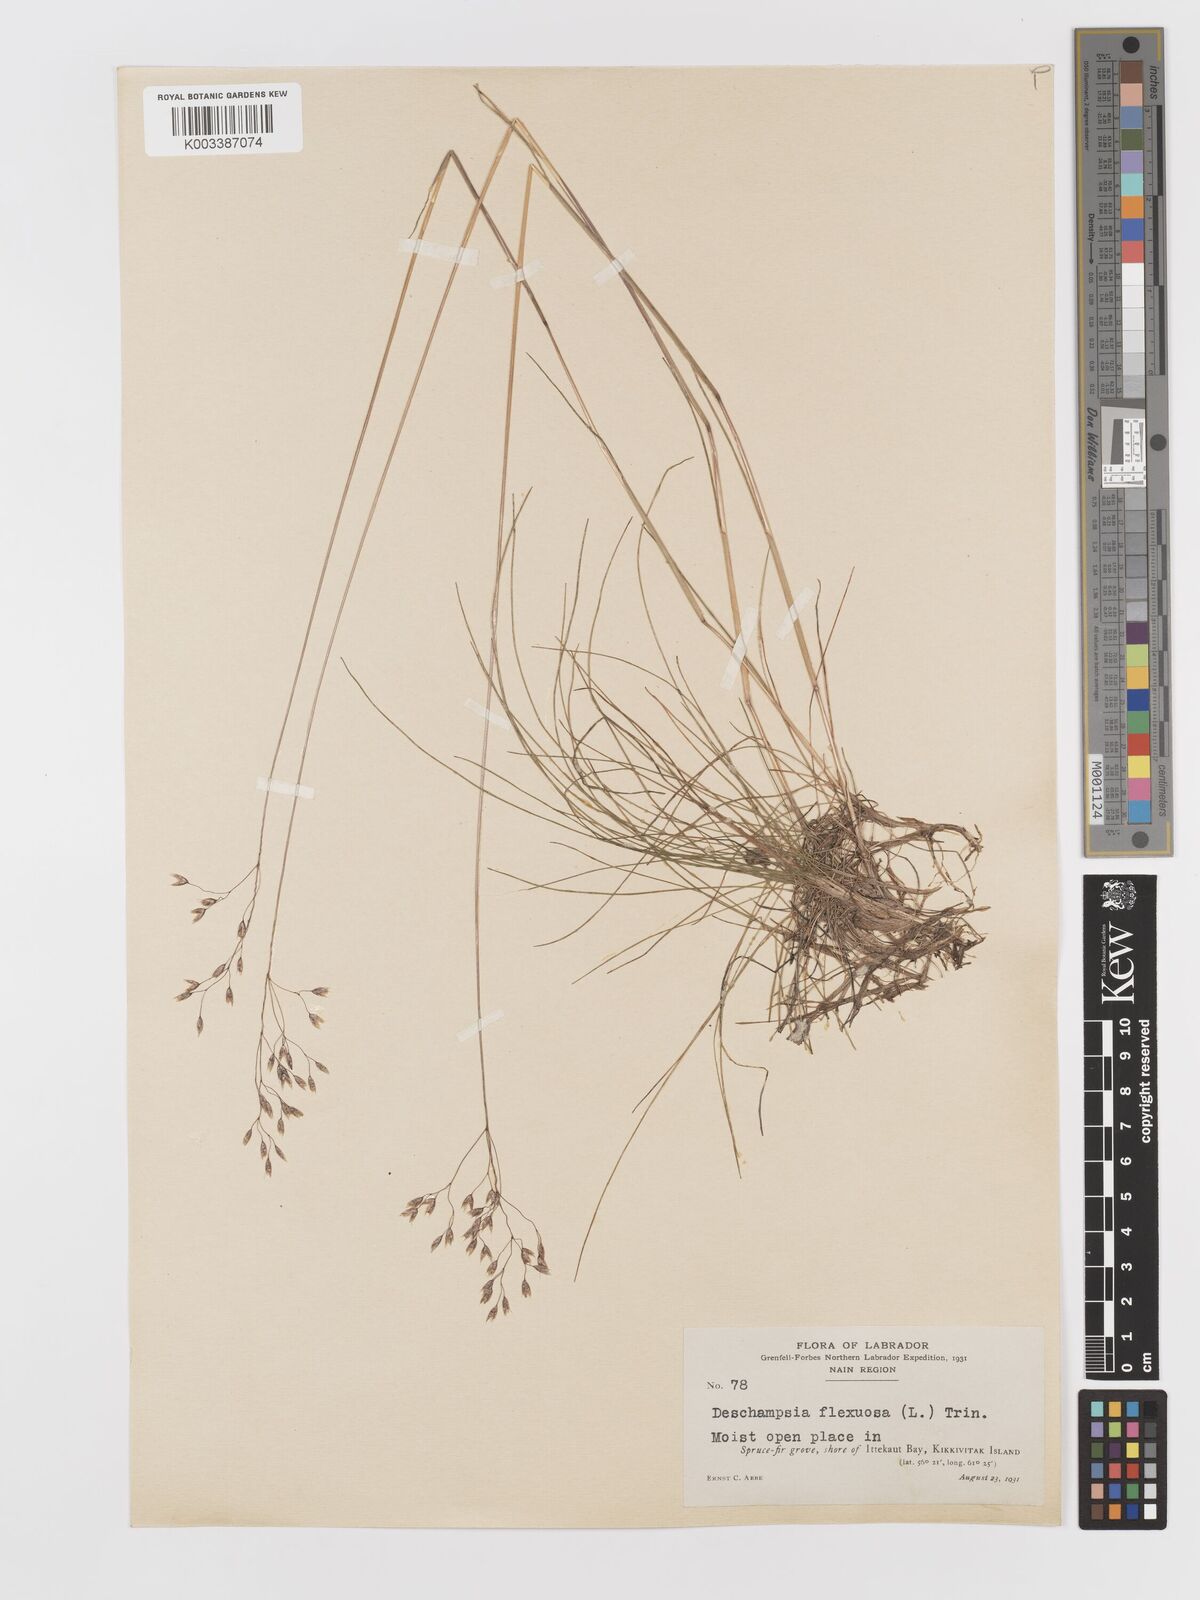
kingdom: Plantae
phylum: Tracheophyta
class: Liliopsida
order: Poales
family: Poaceae
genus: Avenella
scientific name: Avenella flexuosa
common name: Wavy hairgrass
